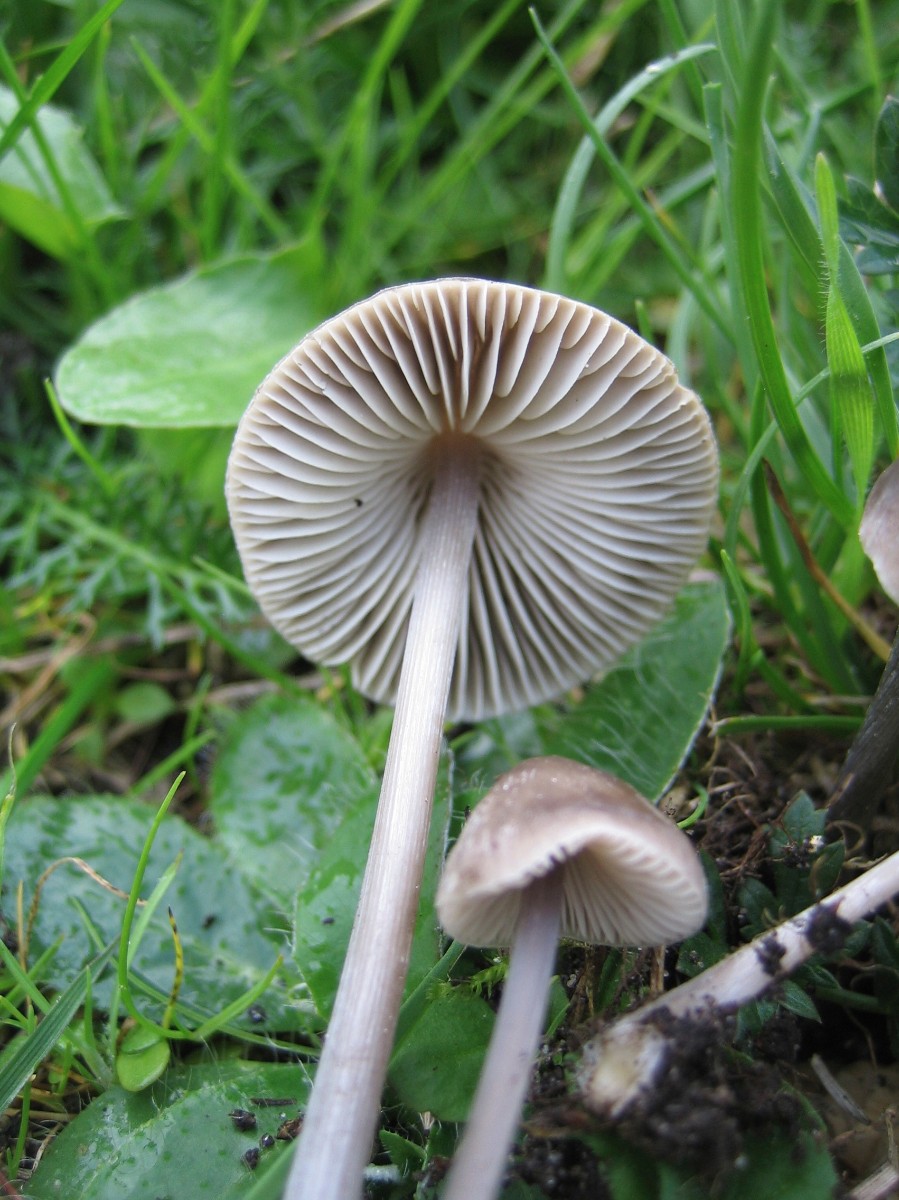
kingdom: Fungi
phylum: Basidiomycota
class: Agaricomycetes
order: Agaricales
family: Mycenaceae
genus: Mycena
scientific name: Mycena polygramma
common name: mangestribet huesvamp
